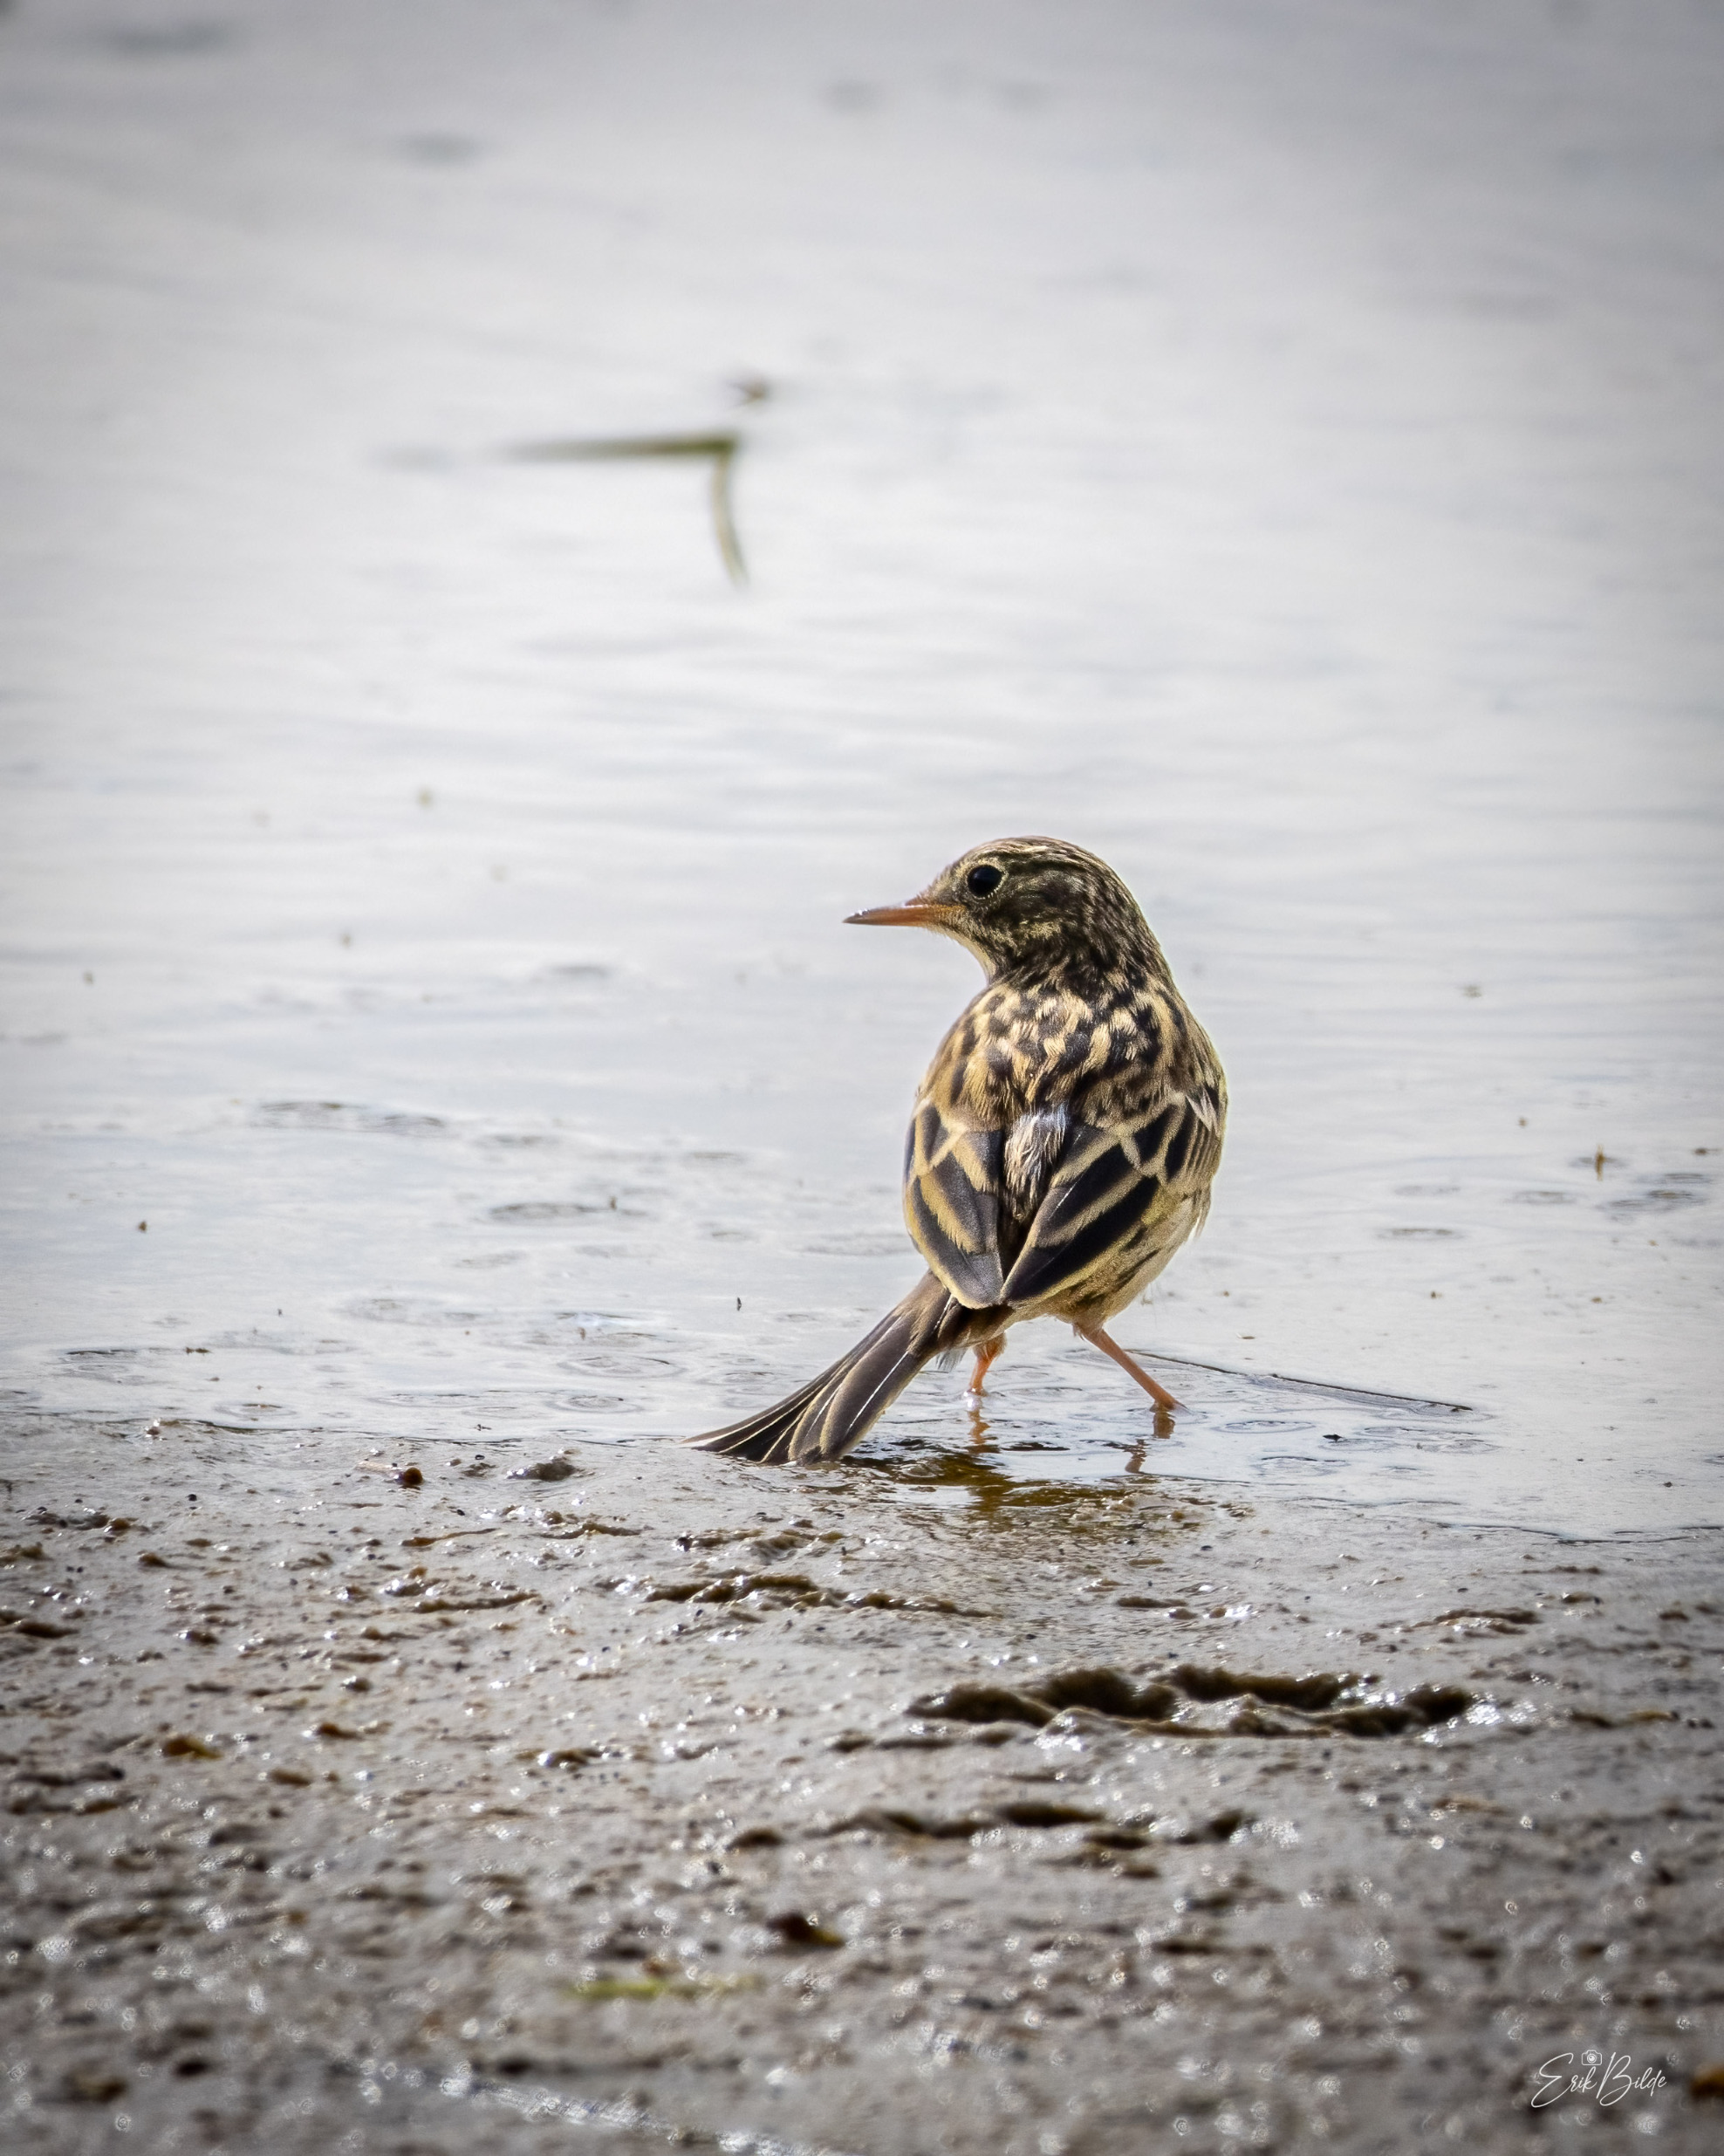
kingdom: Animalia
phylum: Chordata
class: Aves
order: Passeriformes
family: Motacillidae
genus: Anthus
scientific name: Anthus pratensis
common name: Engpiber
